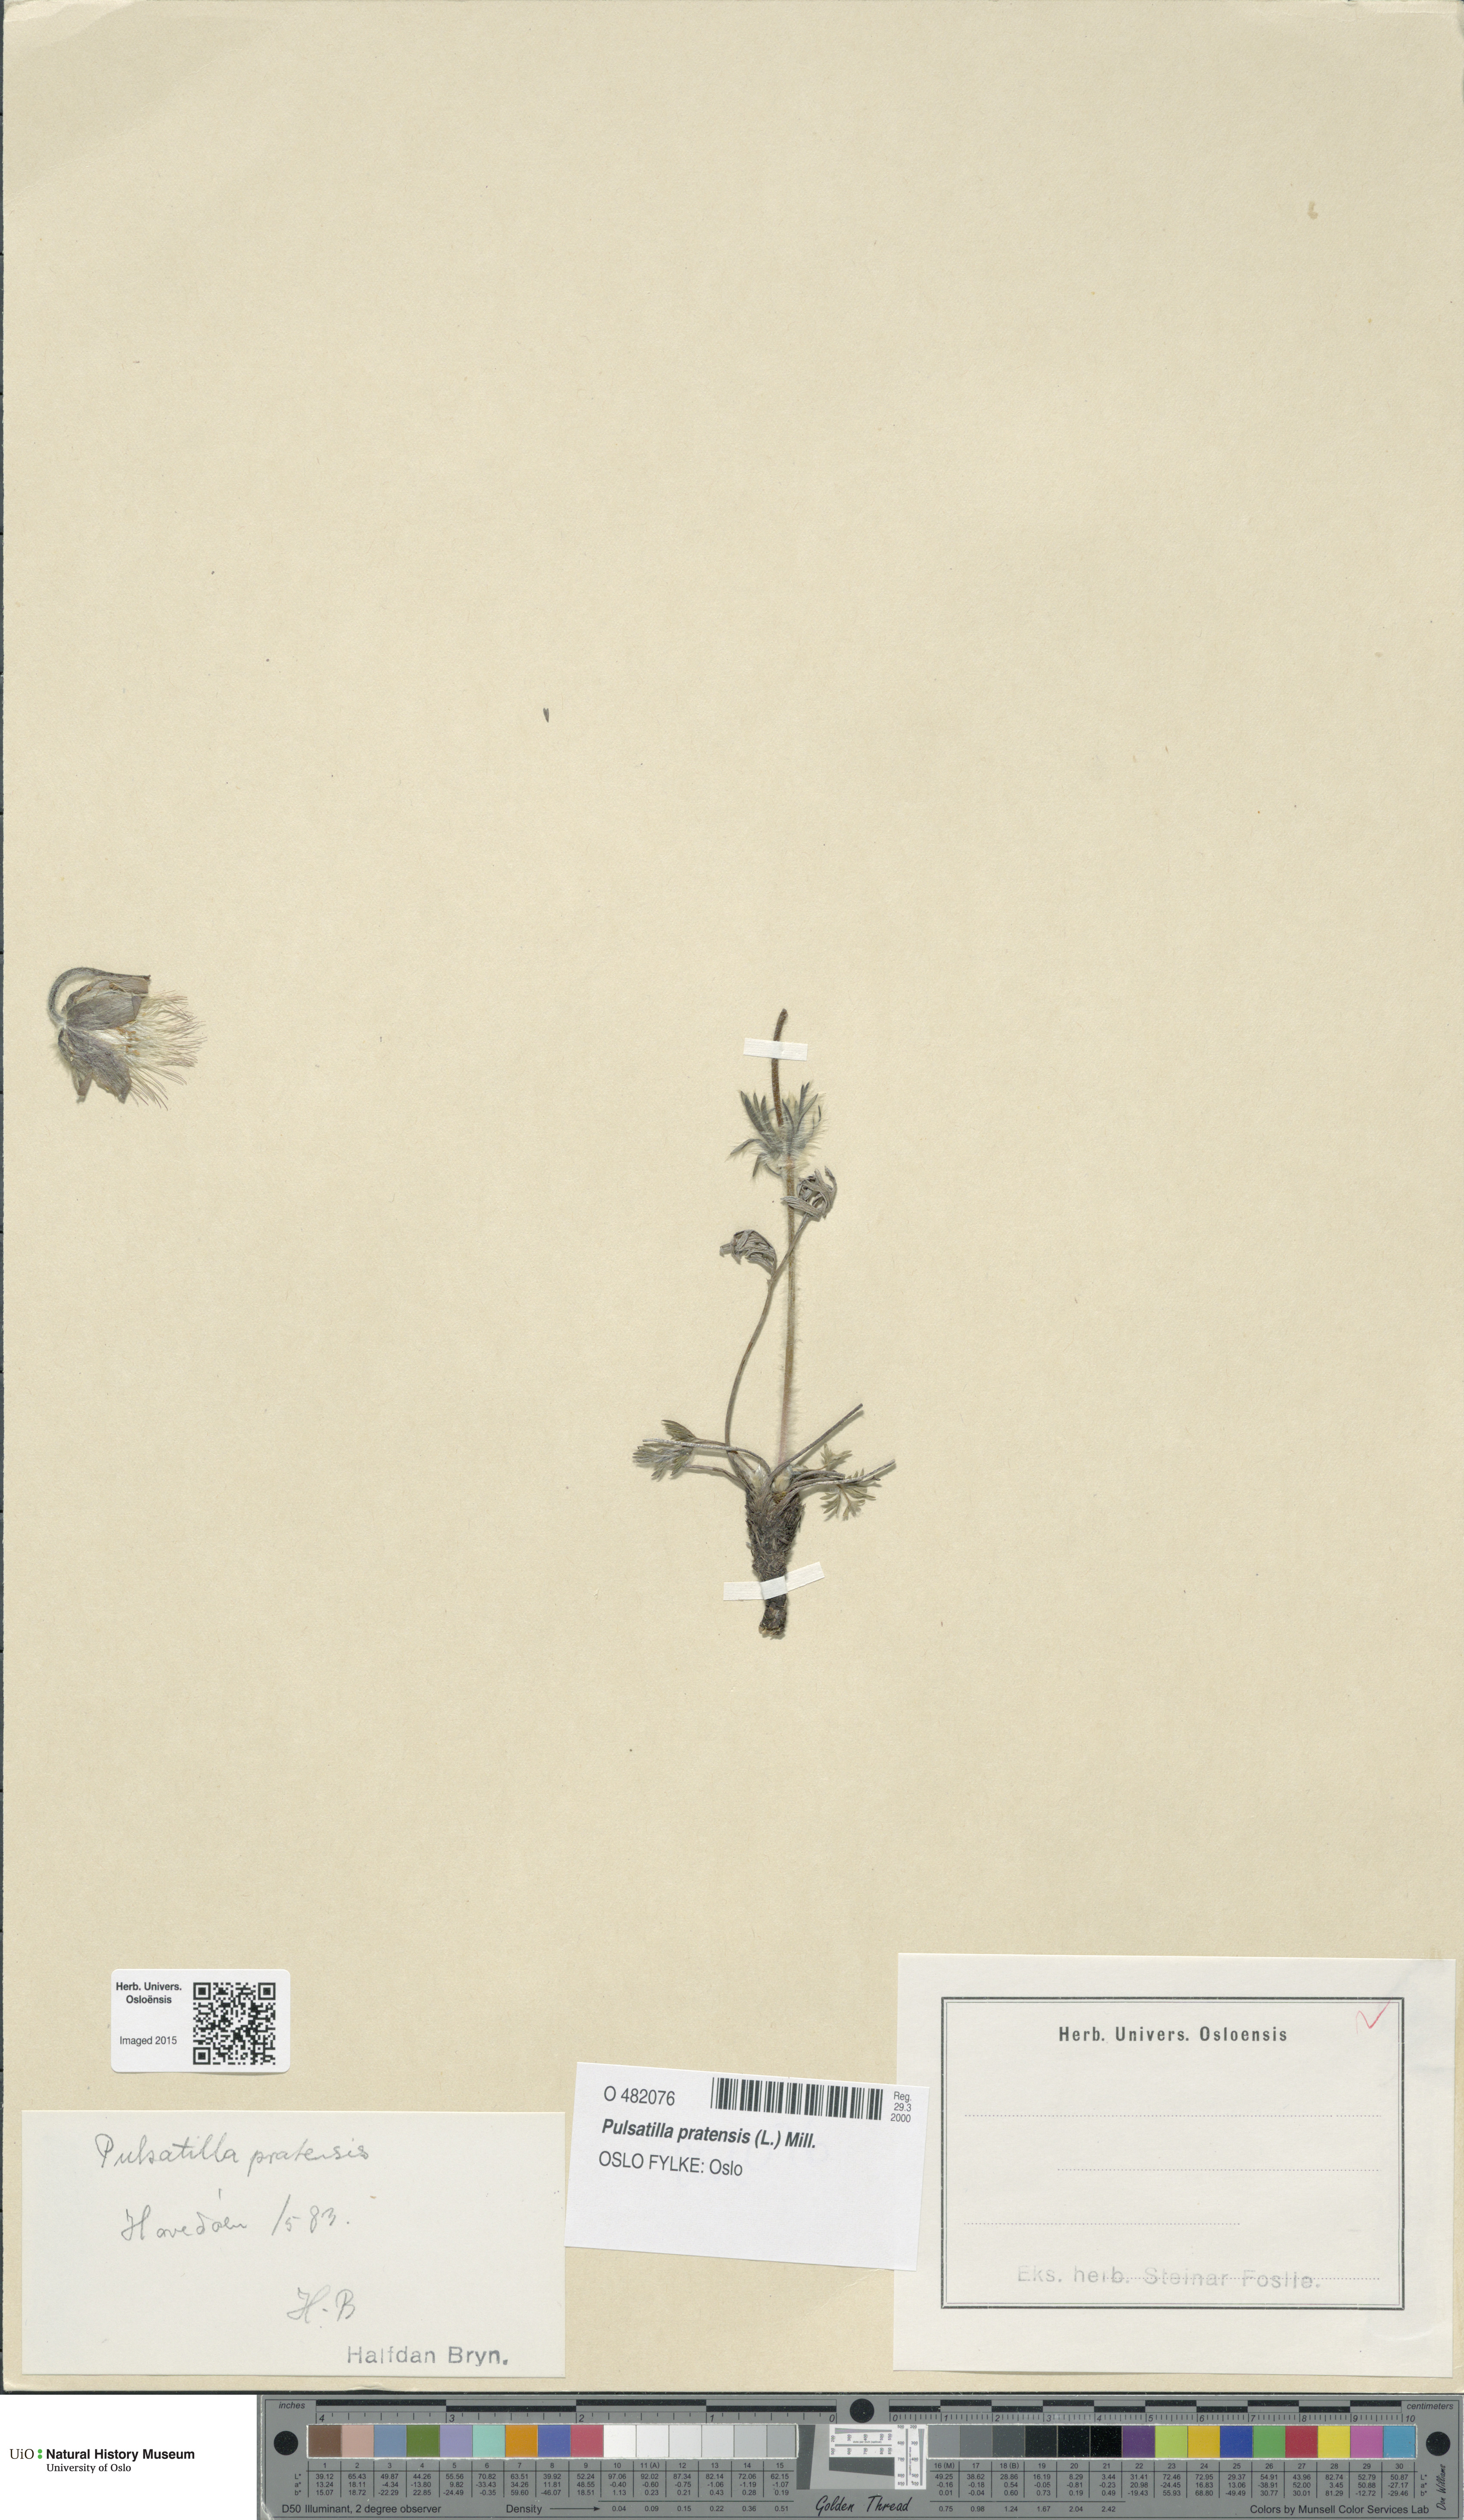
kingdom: Plantae
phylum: Tracheophyta
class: Magnoliopsida
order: Ranunculales
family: Ranunculaceae
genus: Pulsatilla
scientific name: Pulsatilla pratensis
